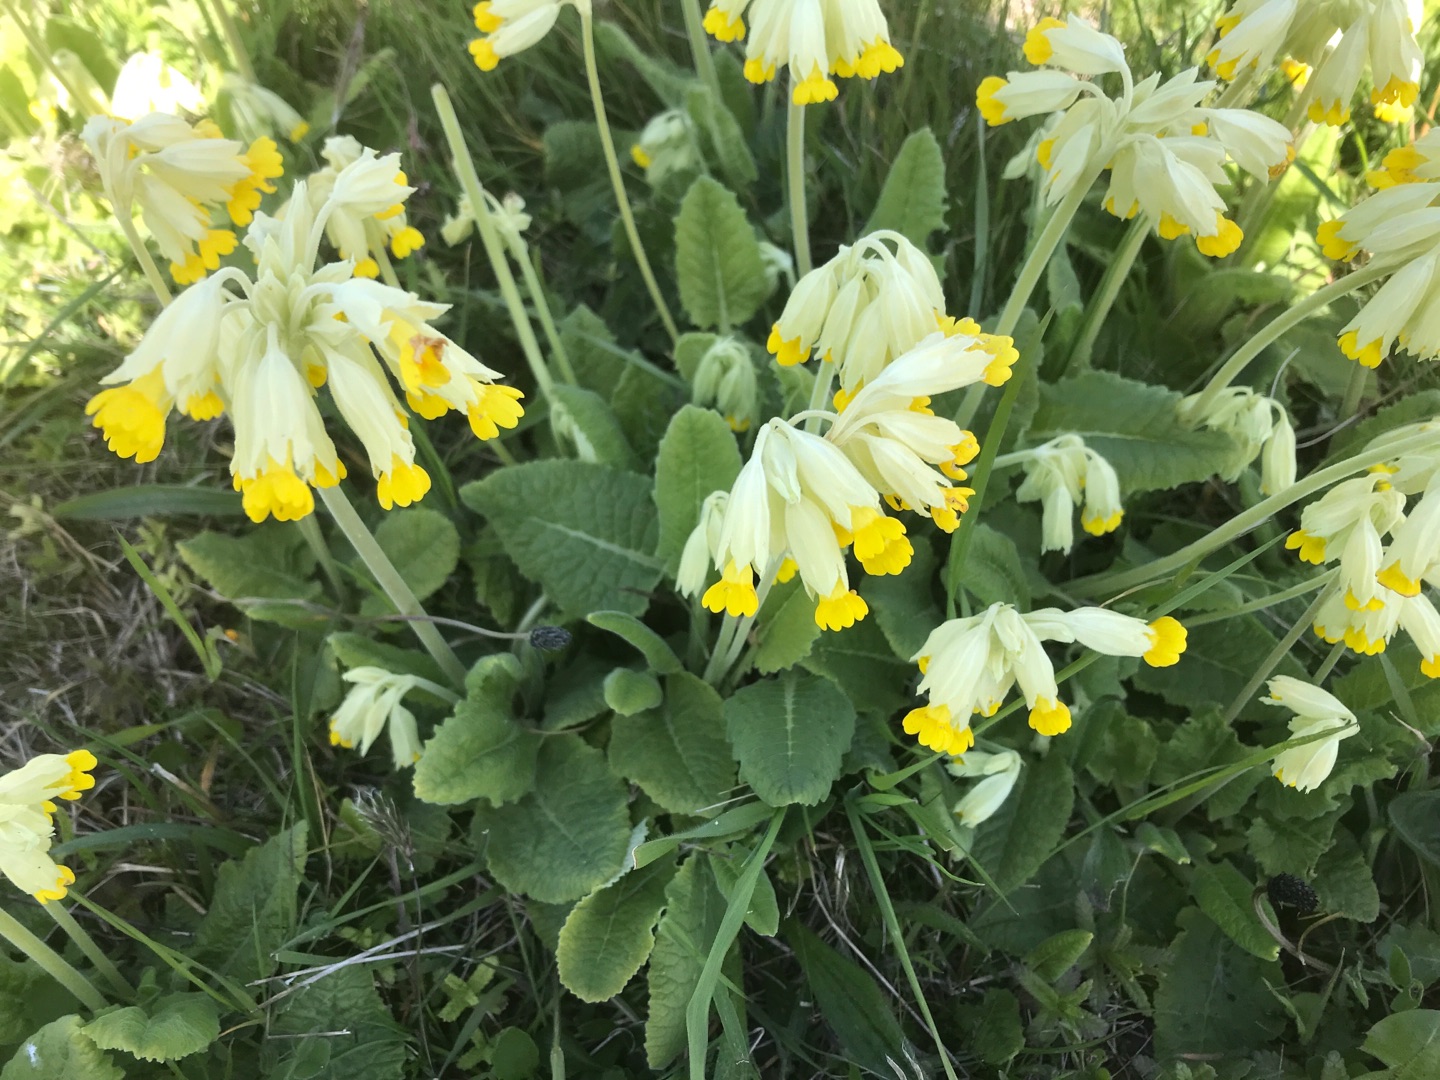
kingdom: Plantae
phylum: Tracheophyta
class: Magnoliopsida
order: Ericales
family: Primulaceae
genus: Primula
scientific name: Primula veris
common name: Hulkravet kodriver
